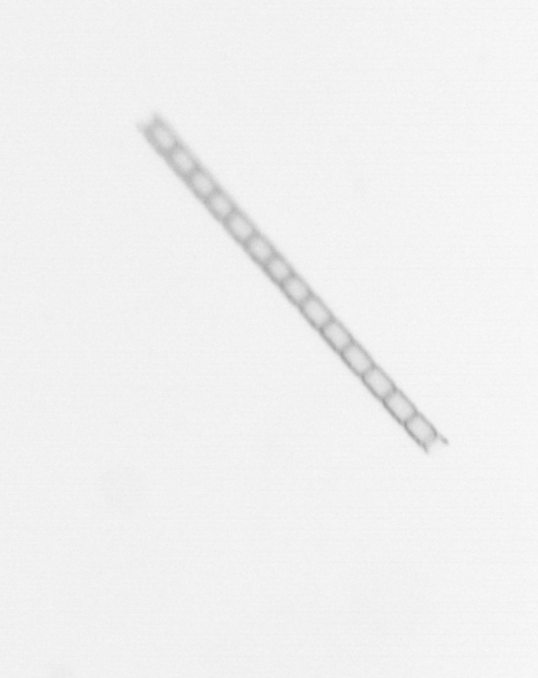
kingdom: Chromista
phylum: Ochrophyta
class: Bacillariophyceae
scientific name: Bacillariophyceae
